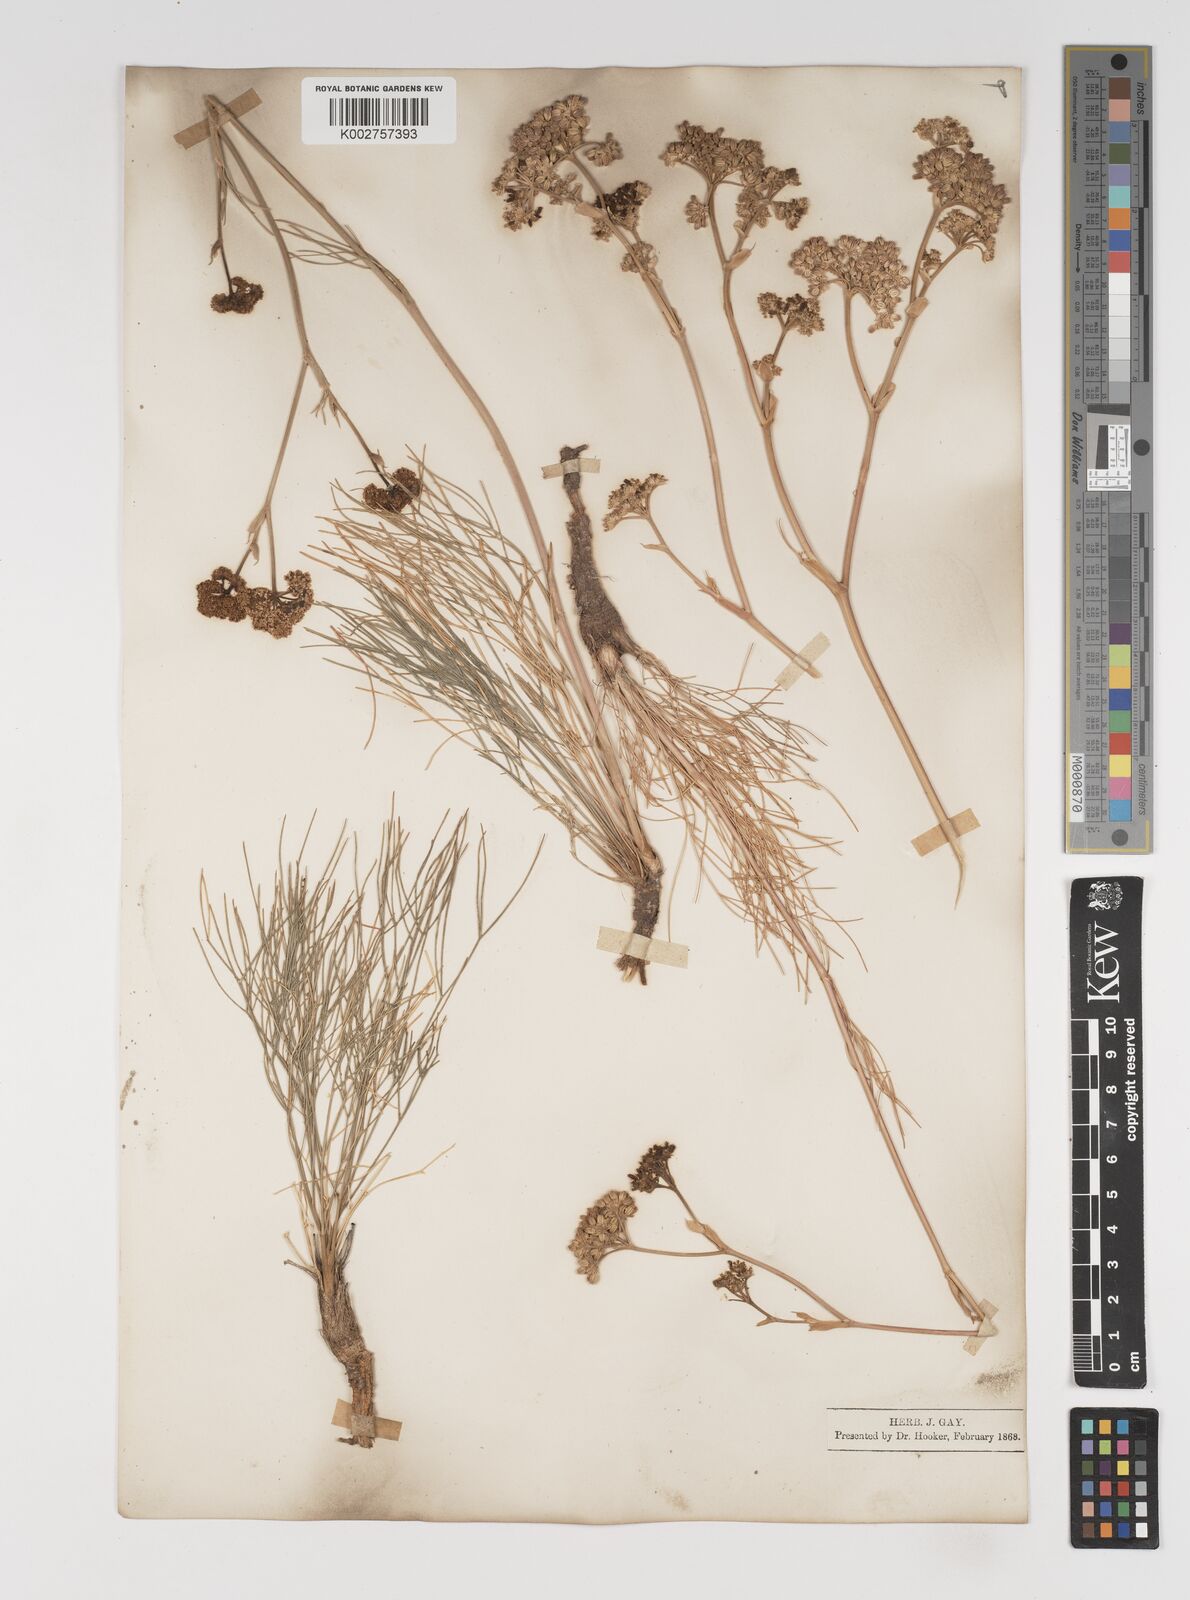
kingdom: Plantae
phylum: Tracheophyta
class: Magnoliopsida
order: Apiales
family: Apiaceae
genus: Seseli
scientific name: Seseli leucospermum
